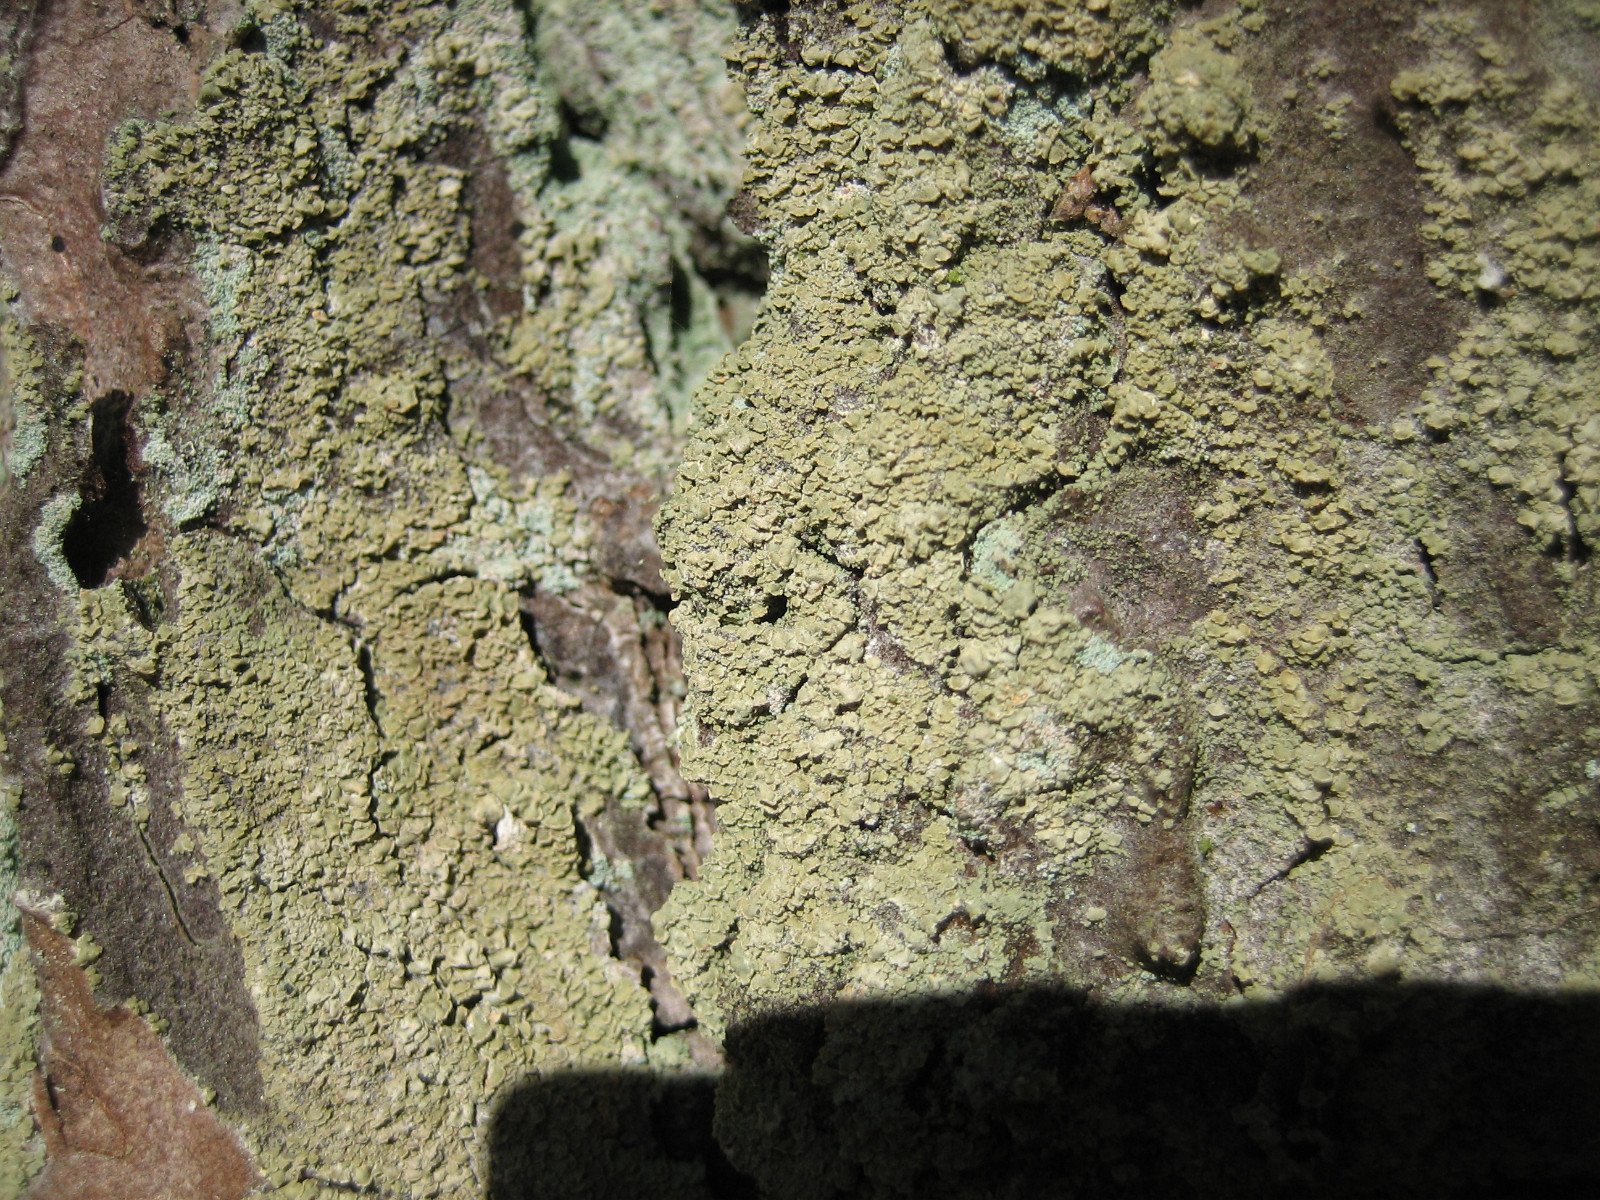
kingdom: Fungi
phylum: Ascomycota
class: Lecanoromycetes
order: Umbilicariales
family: Ophioparmaceae
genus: Hypocenomyce
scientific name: Hypocenomyce scalaris
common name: småskællet muslinglav
